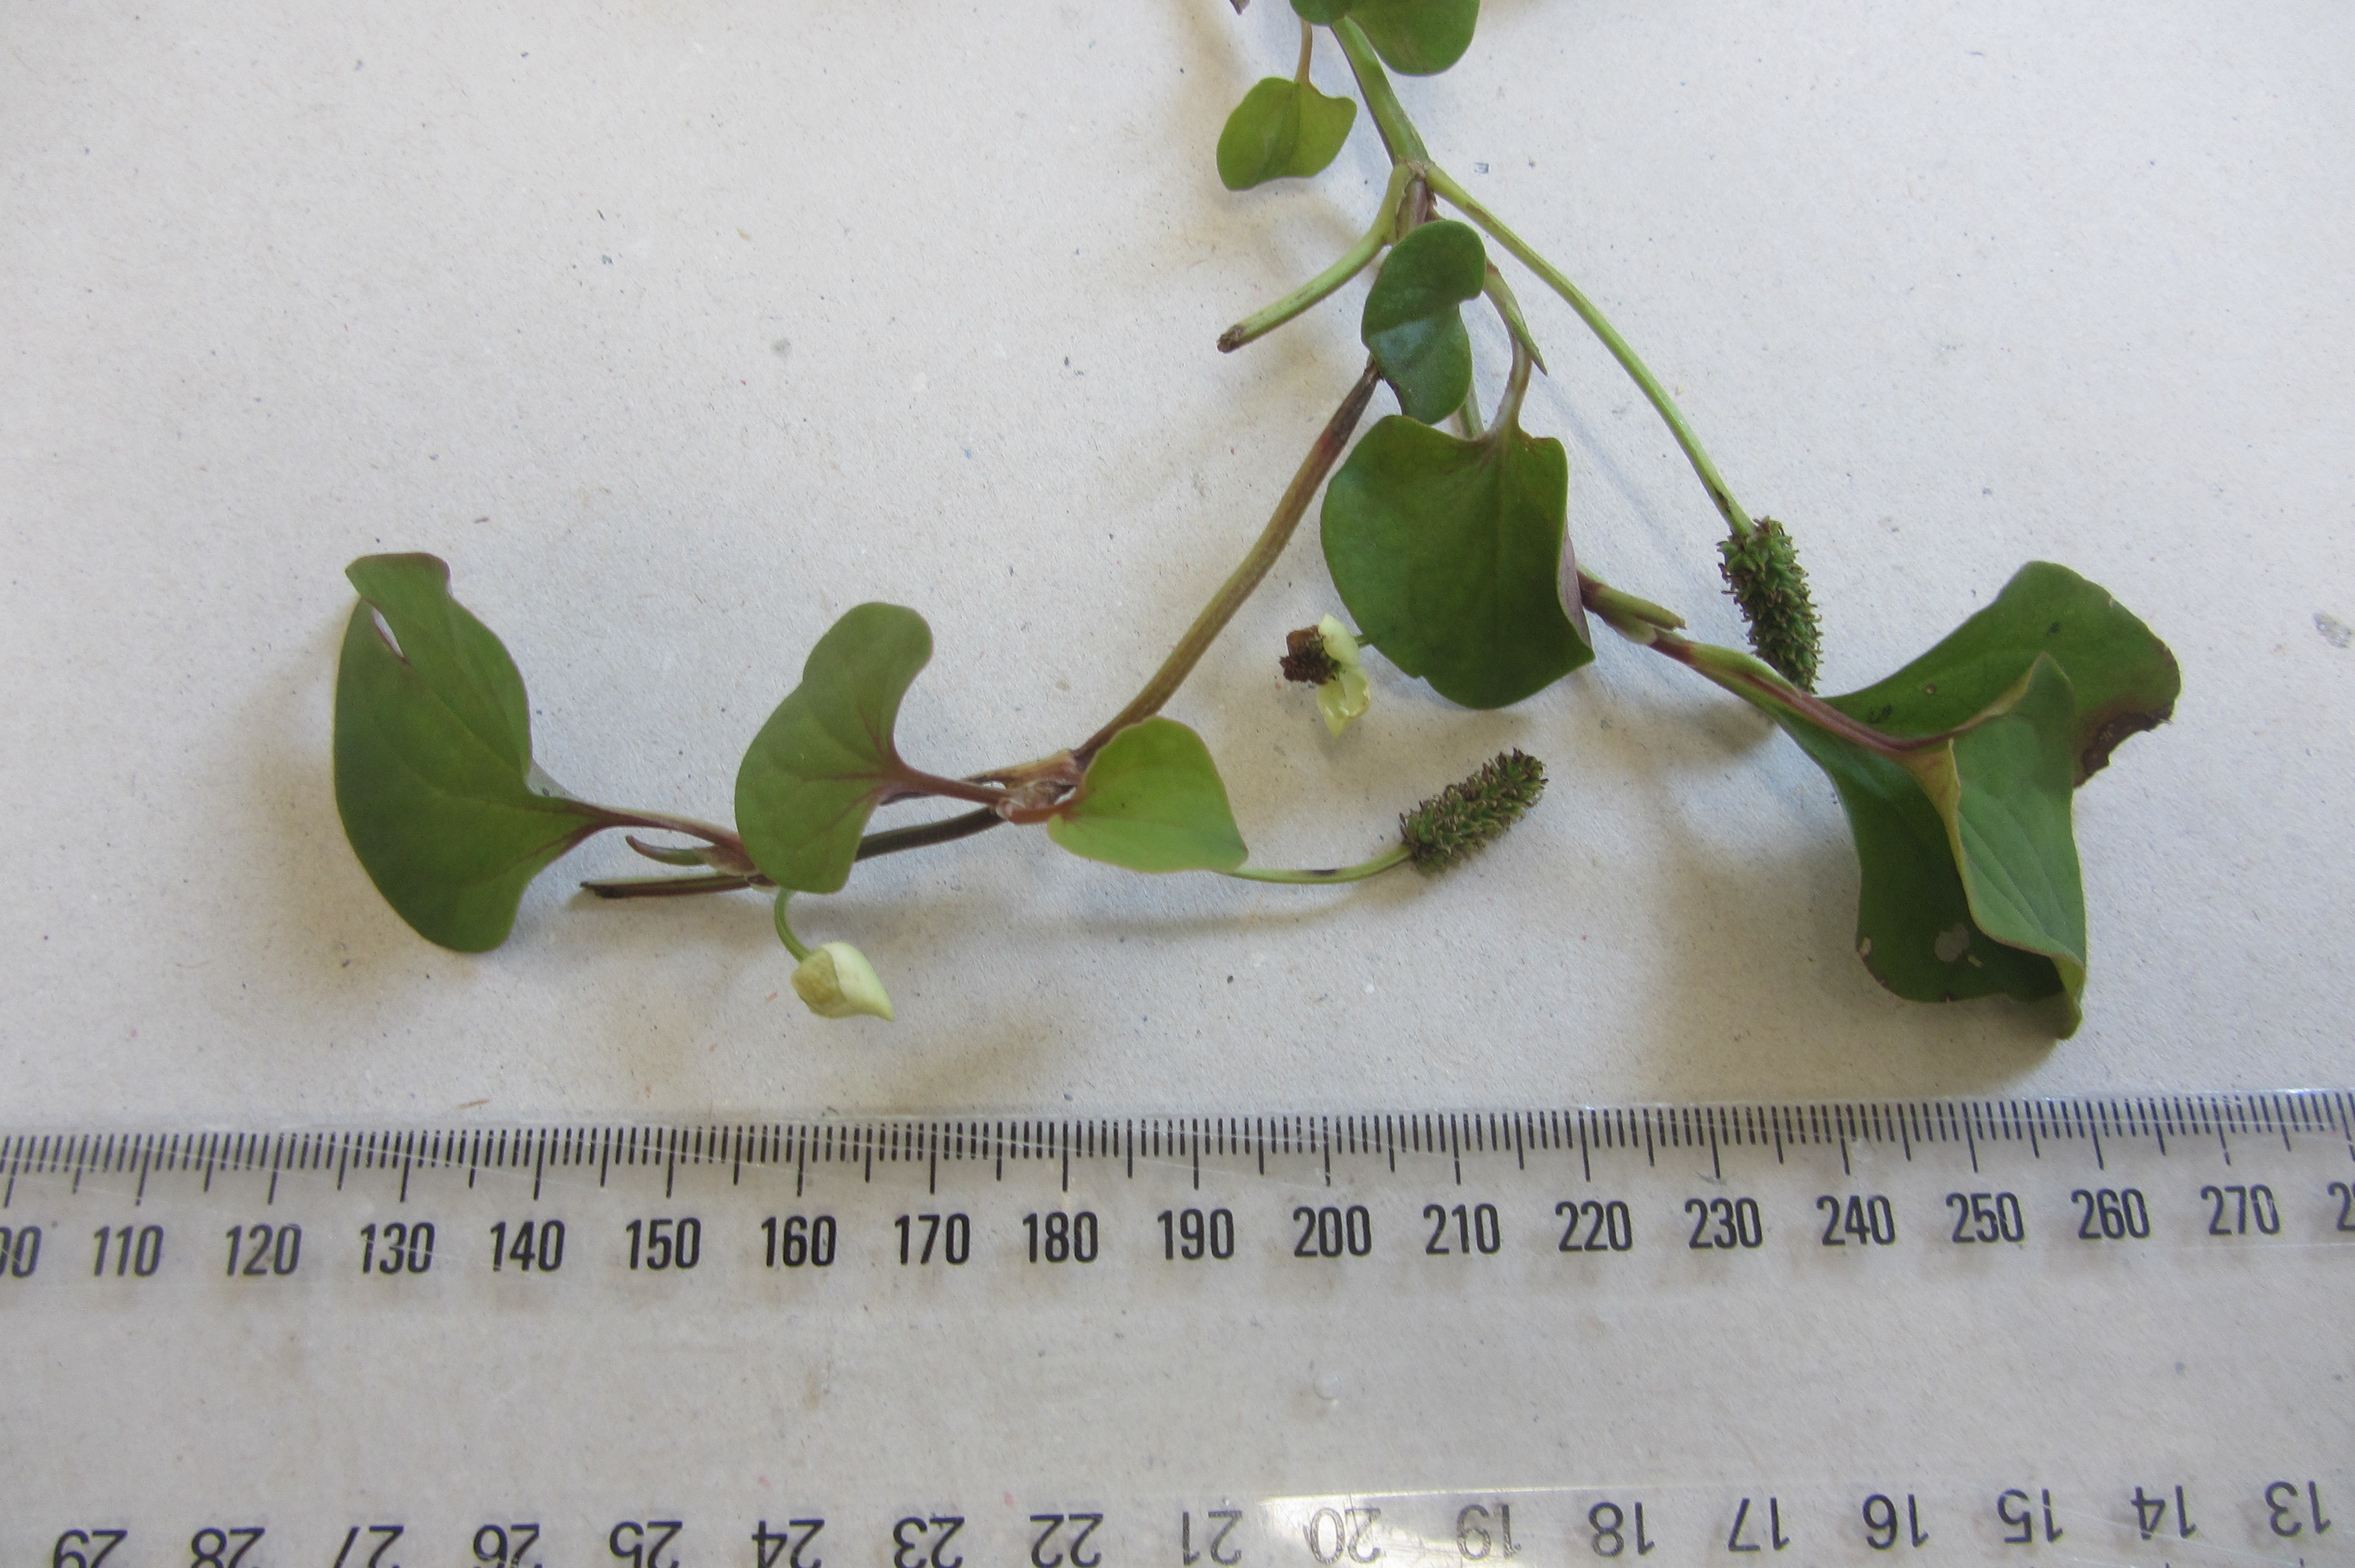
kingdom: Plantae
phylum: Tracheophyta
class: Magnoliopsida
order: Piperales
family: Saururaceae
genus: Houttuynia
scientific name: Houttuynia cordata
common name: Chameleon
